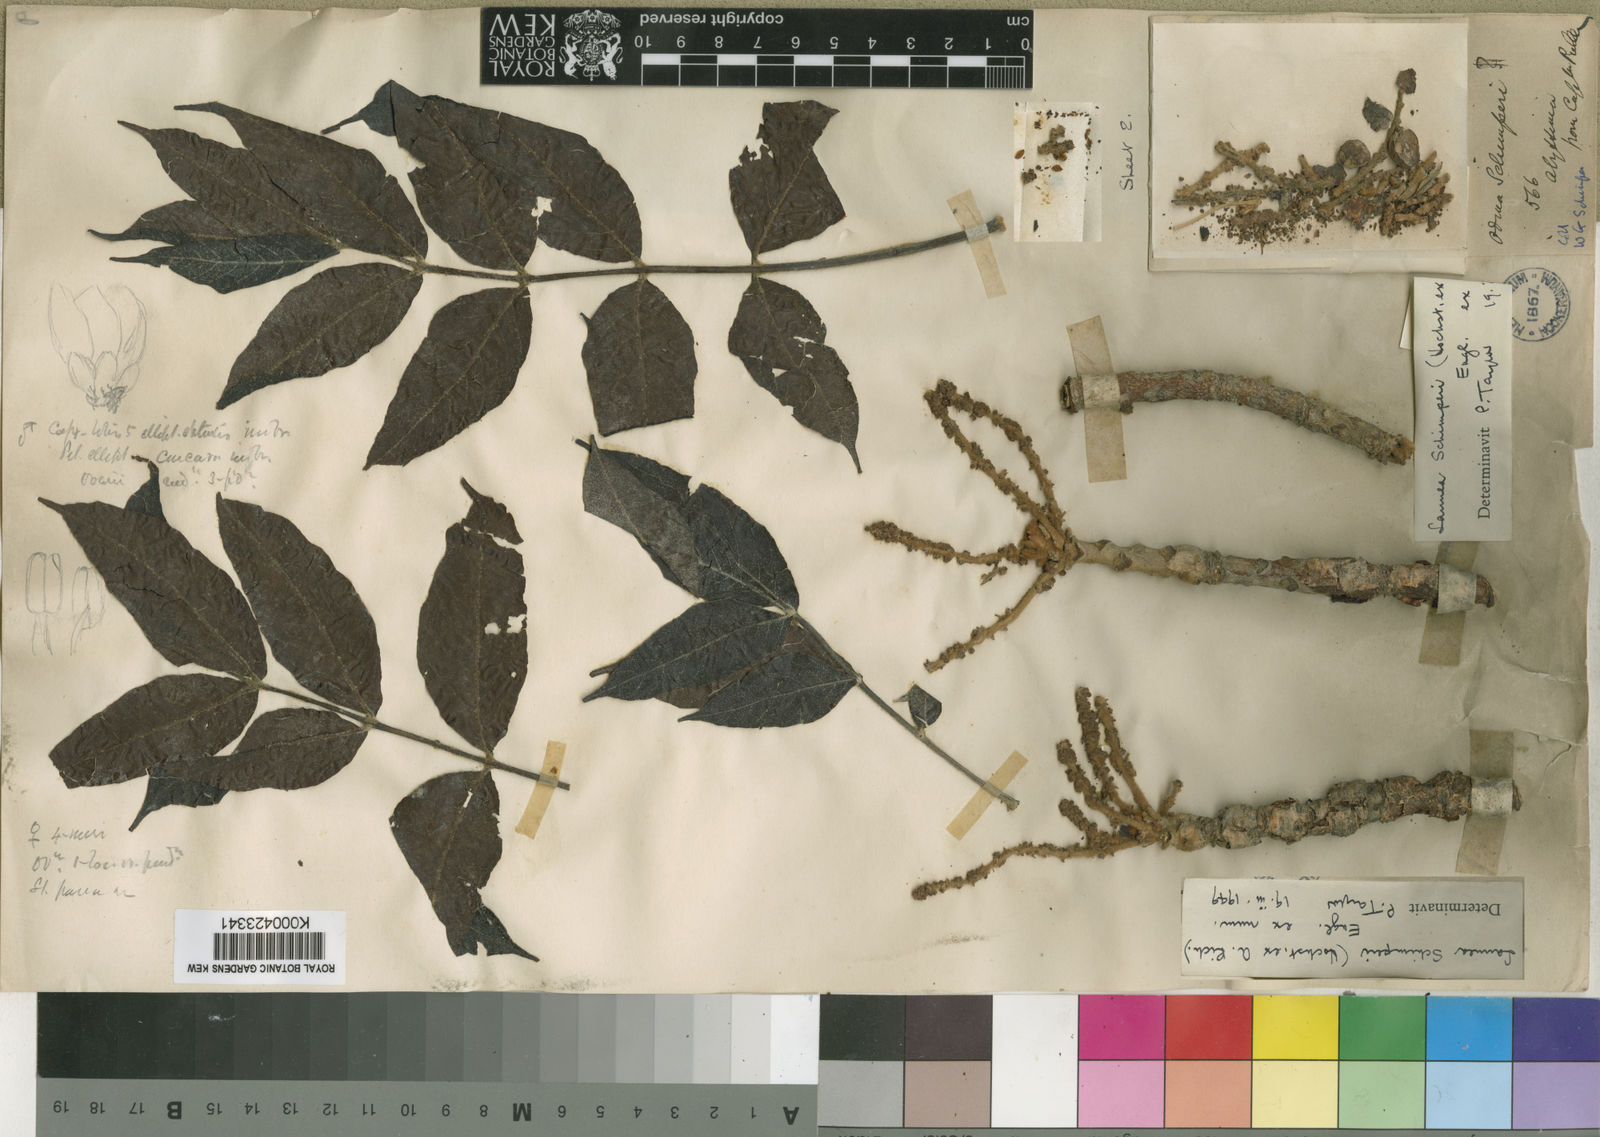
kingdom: Plantae
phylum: Tracheophyta
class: Magnoliopsida
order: Sapindales
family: Anacardiaceae
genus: Lannea
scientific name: Lannea schimperi
